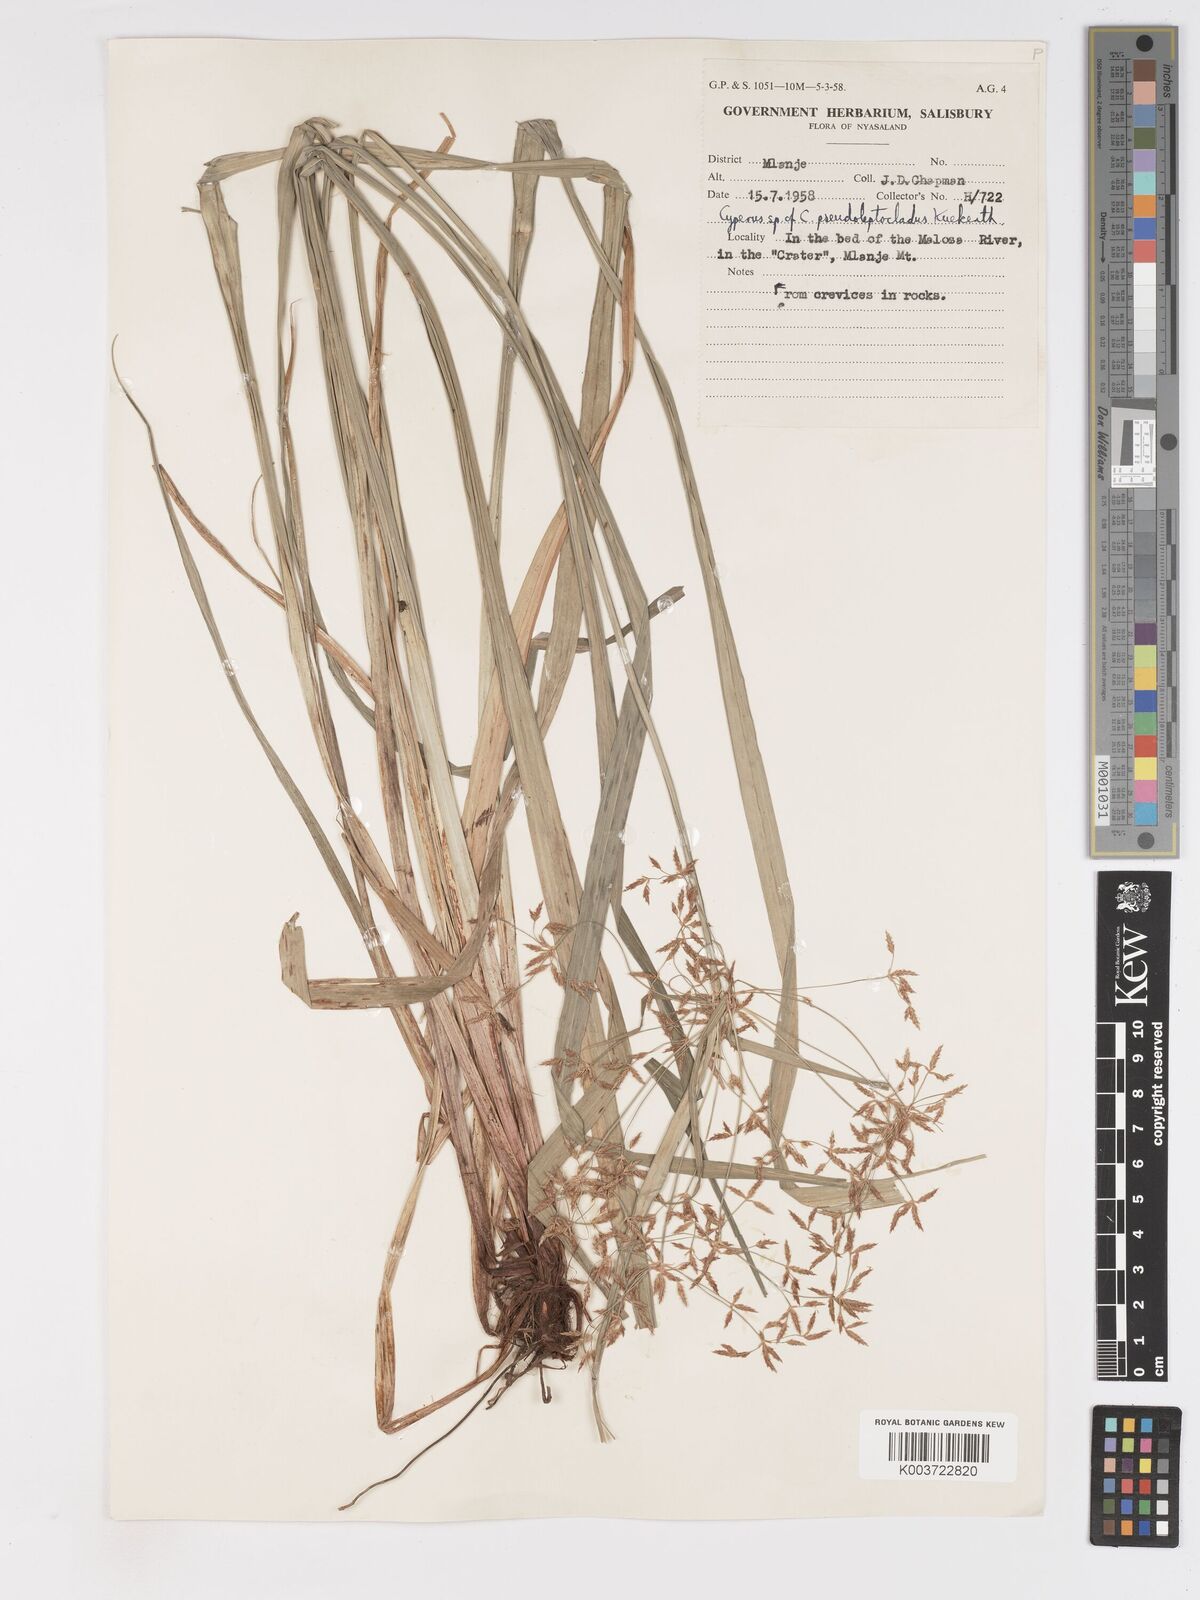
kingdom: Plantae
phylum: Tracheophyta
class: Liliopsida
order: Poales
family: Cyperaceae
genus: Cyperus
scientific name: Cyperus glaucophyllus
